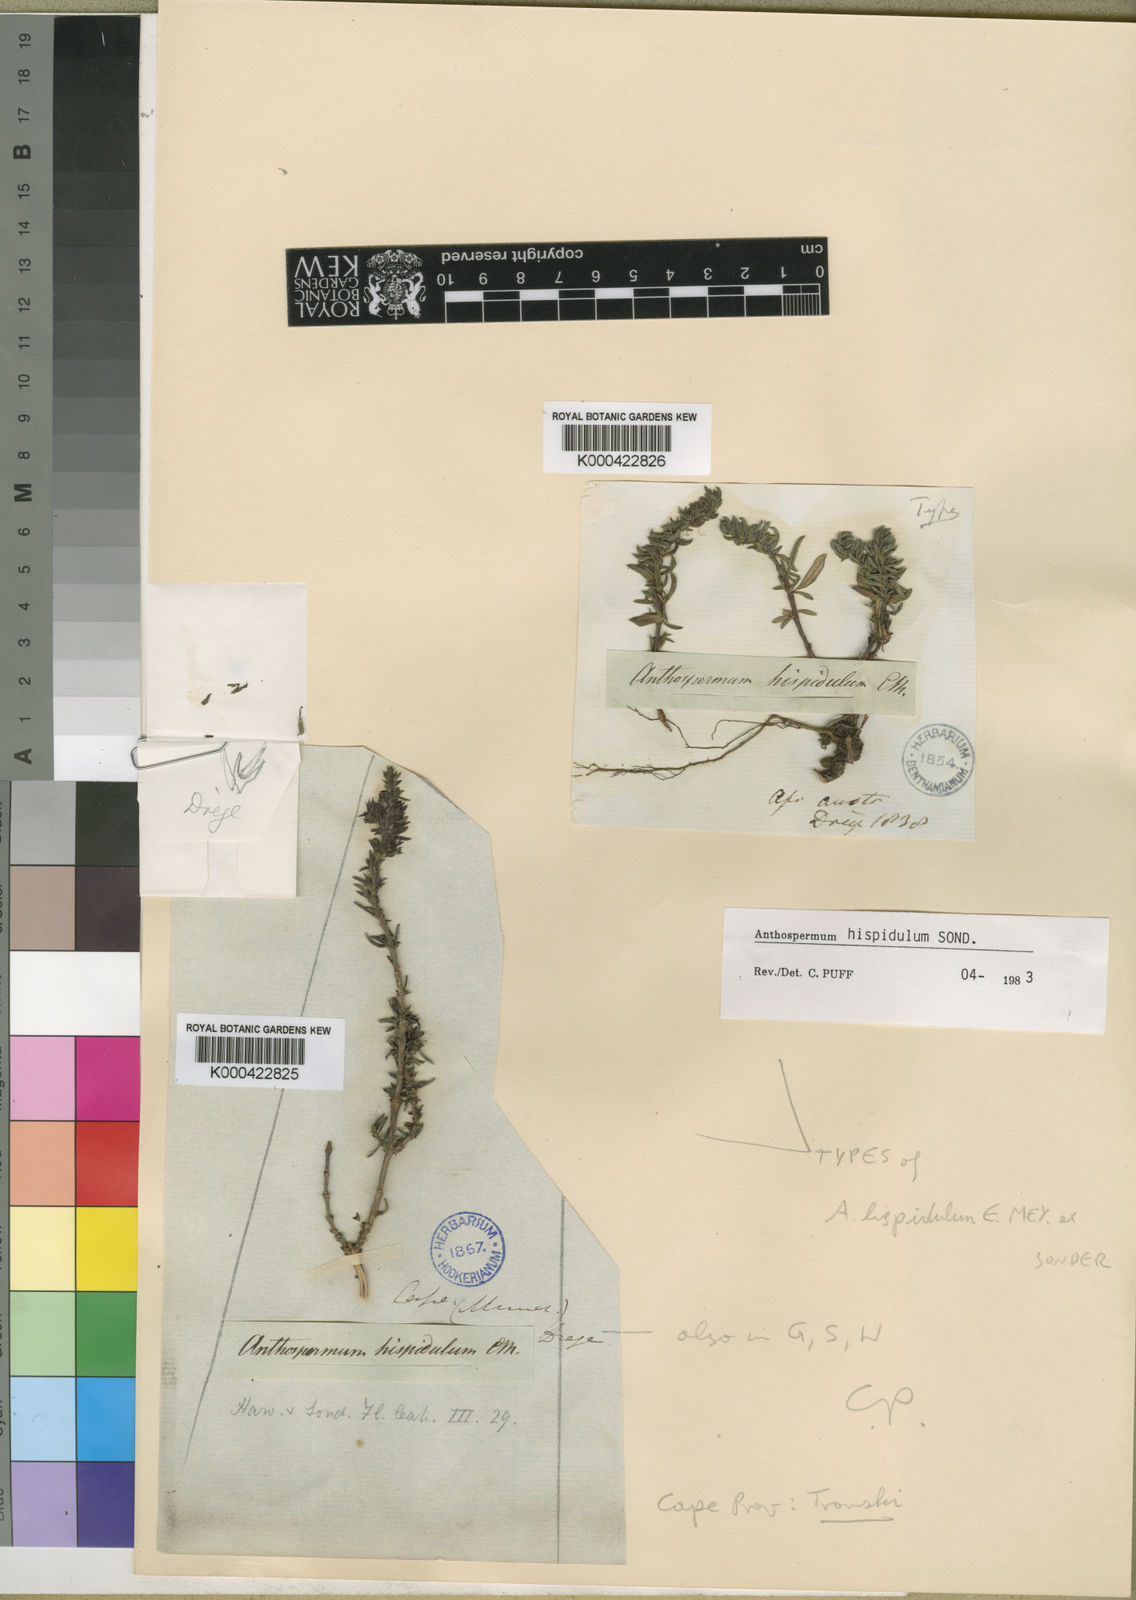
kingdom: Plantae
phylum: Tracheophyta
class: Magnoliopsida
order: Gentianales
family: Rubiaceae
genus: Anthospermum
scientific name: Anthospermum hispidulum
